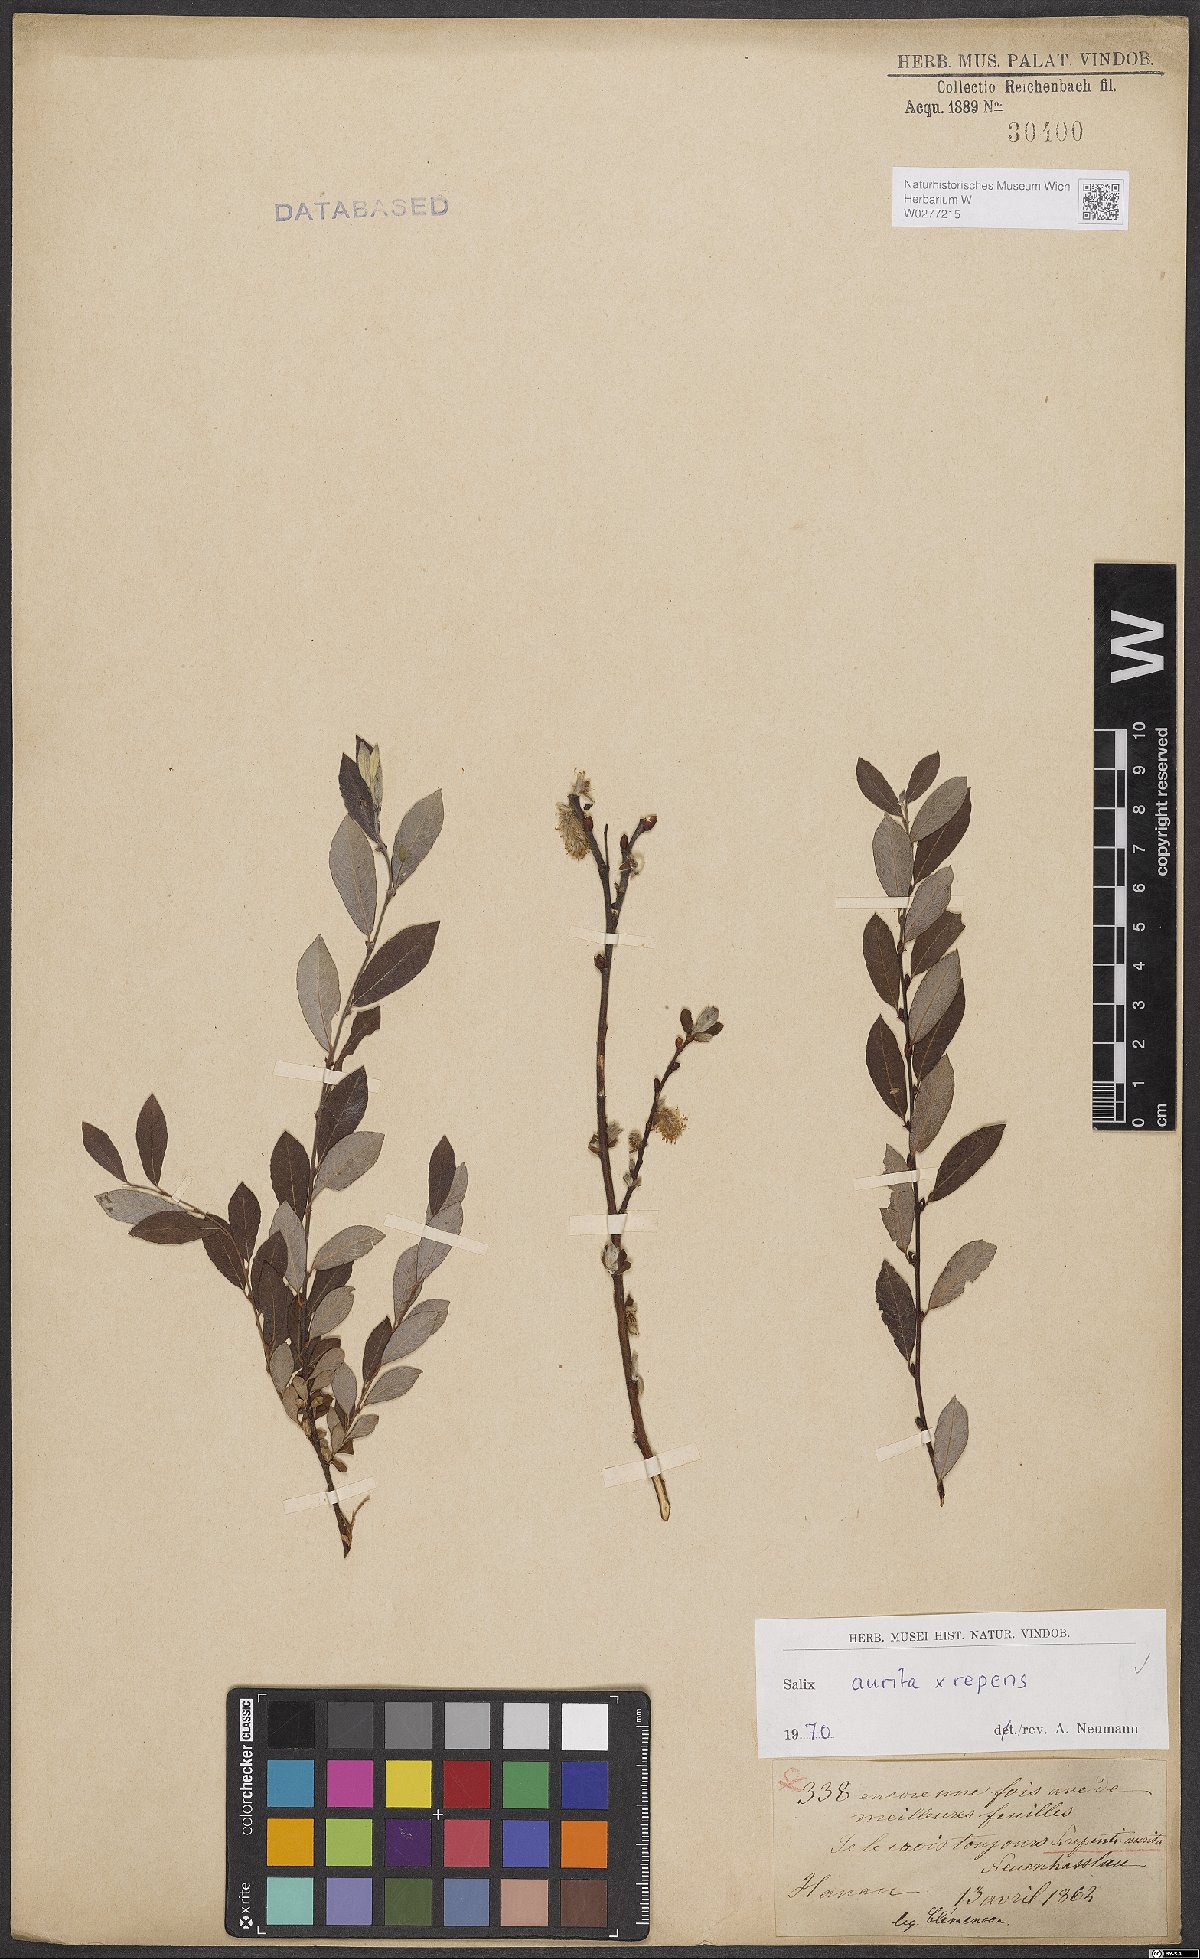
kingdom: Plantae
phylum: Tracheophyta
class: Magnoliopsida
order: Malpighiales
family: Salicaceae
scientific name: Salicaceae
